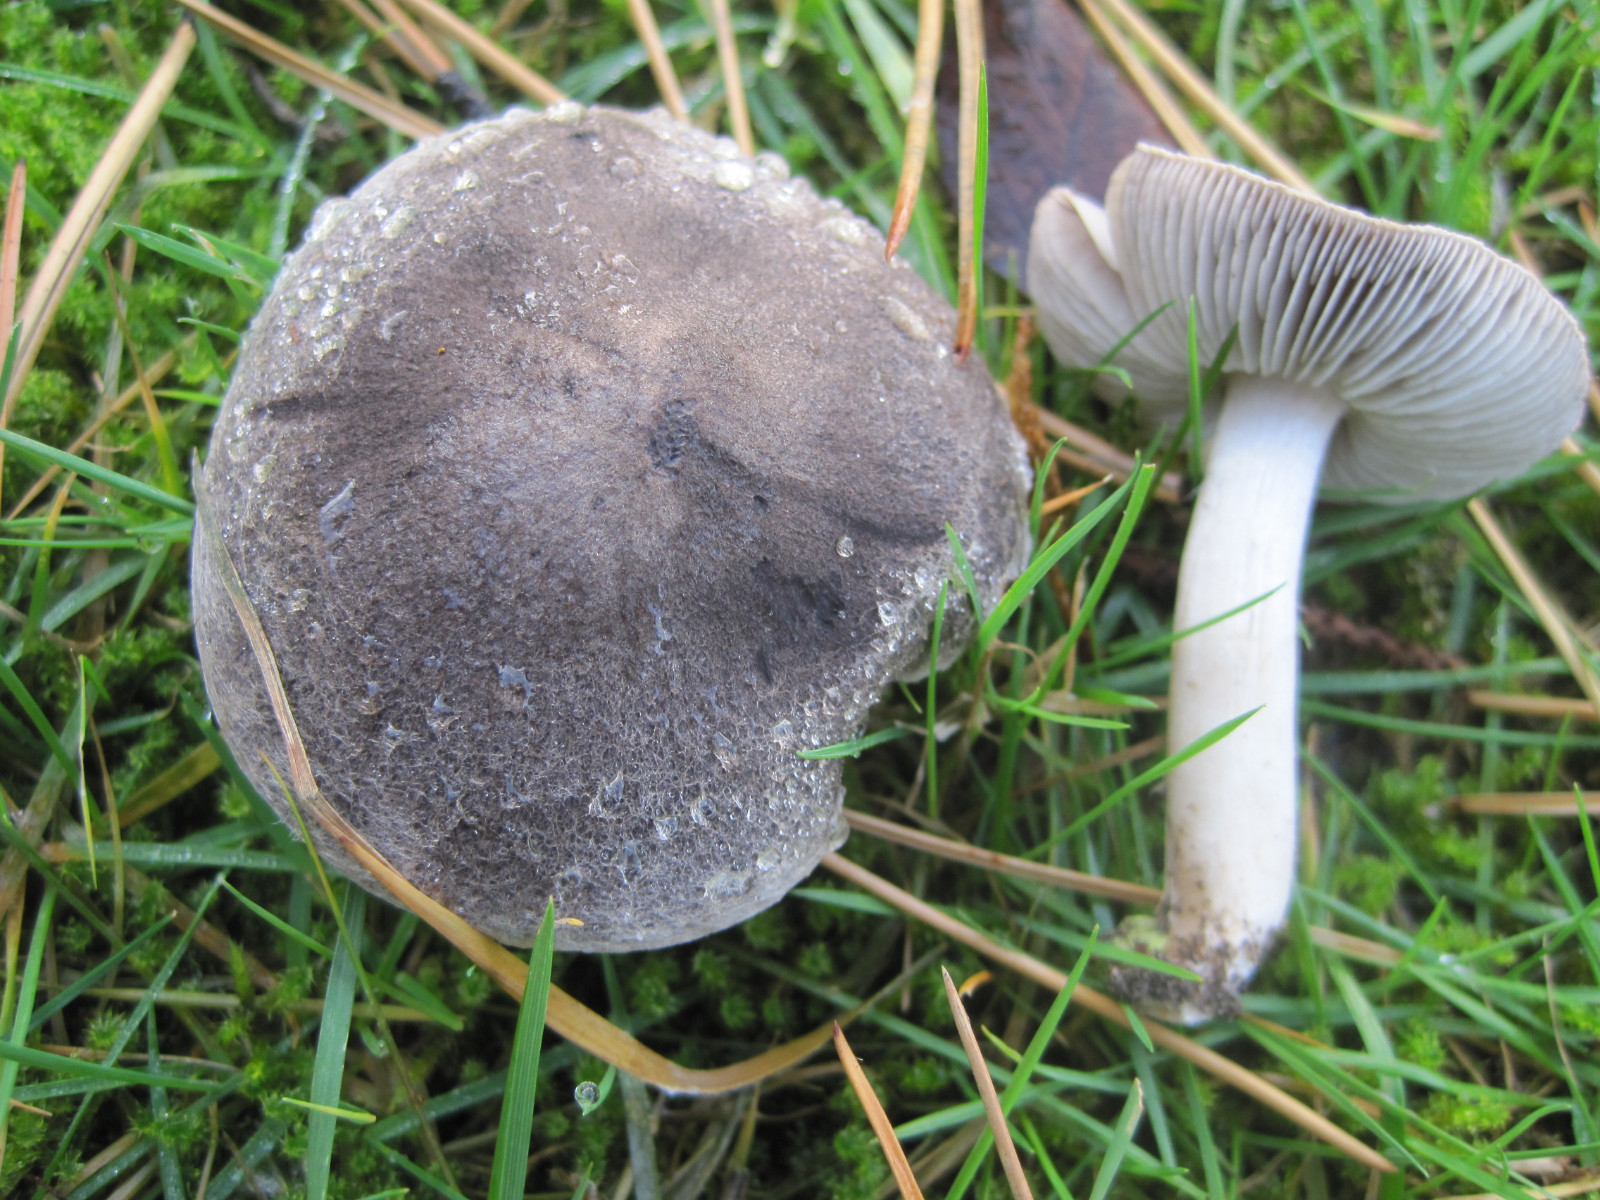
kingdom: Fungi
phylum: Basidiomycota
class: Agaricomycetes
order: Agaricales
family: Tricholomataceae
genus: Tricholoma
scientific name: Tricholoma terreum
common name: jordfarvet ridderhat
